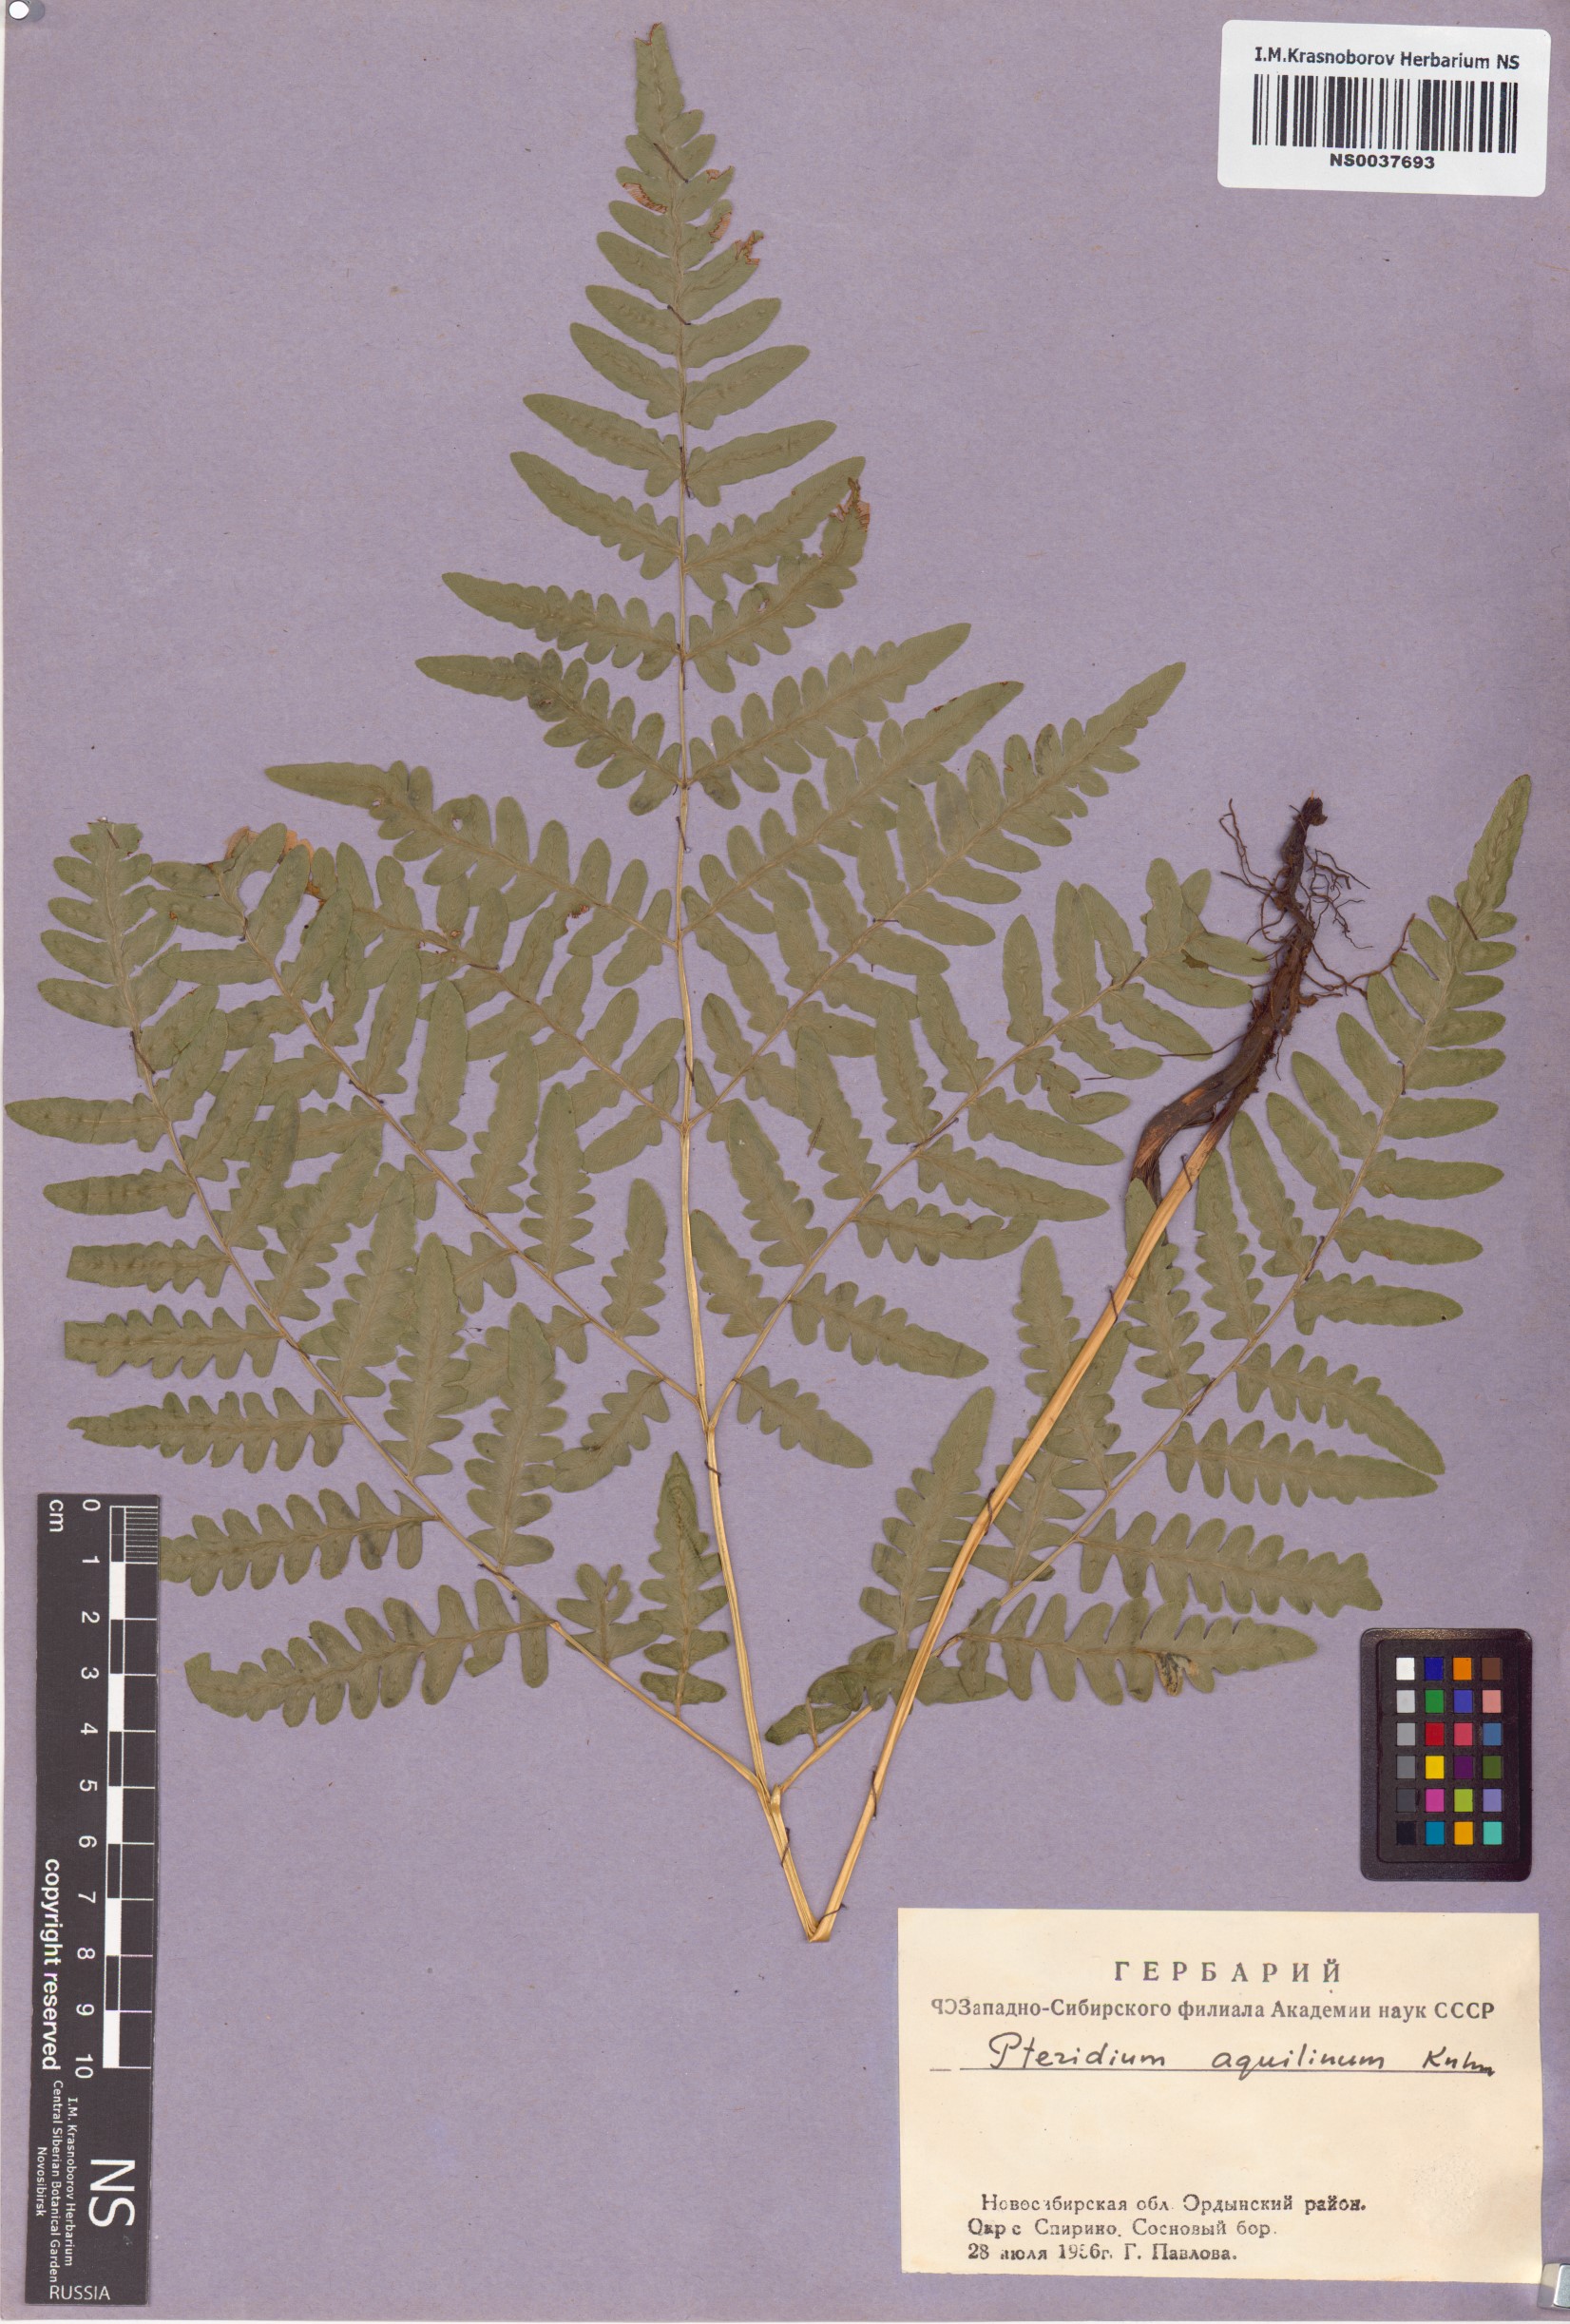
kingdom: Plantae
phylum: Tracheophyta
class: Polypodiopsida
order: Polypodiales
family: Dennstaedtiaceae
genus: Pteridium
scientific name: Pteridium aquilinum
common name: Bracken
